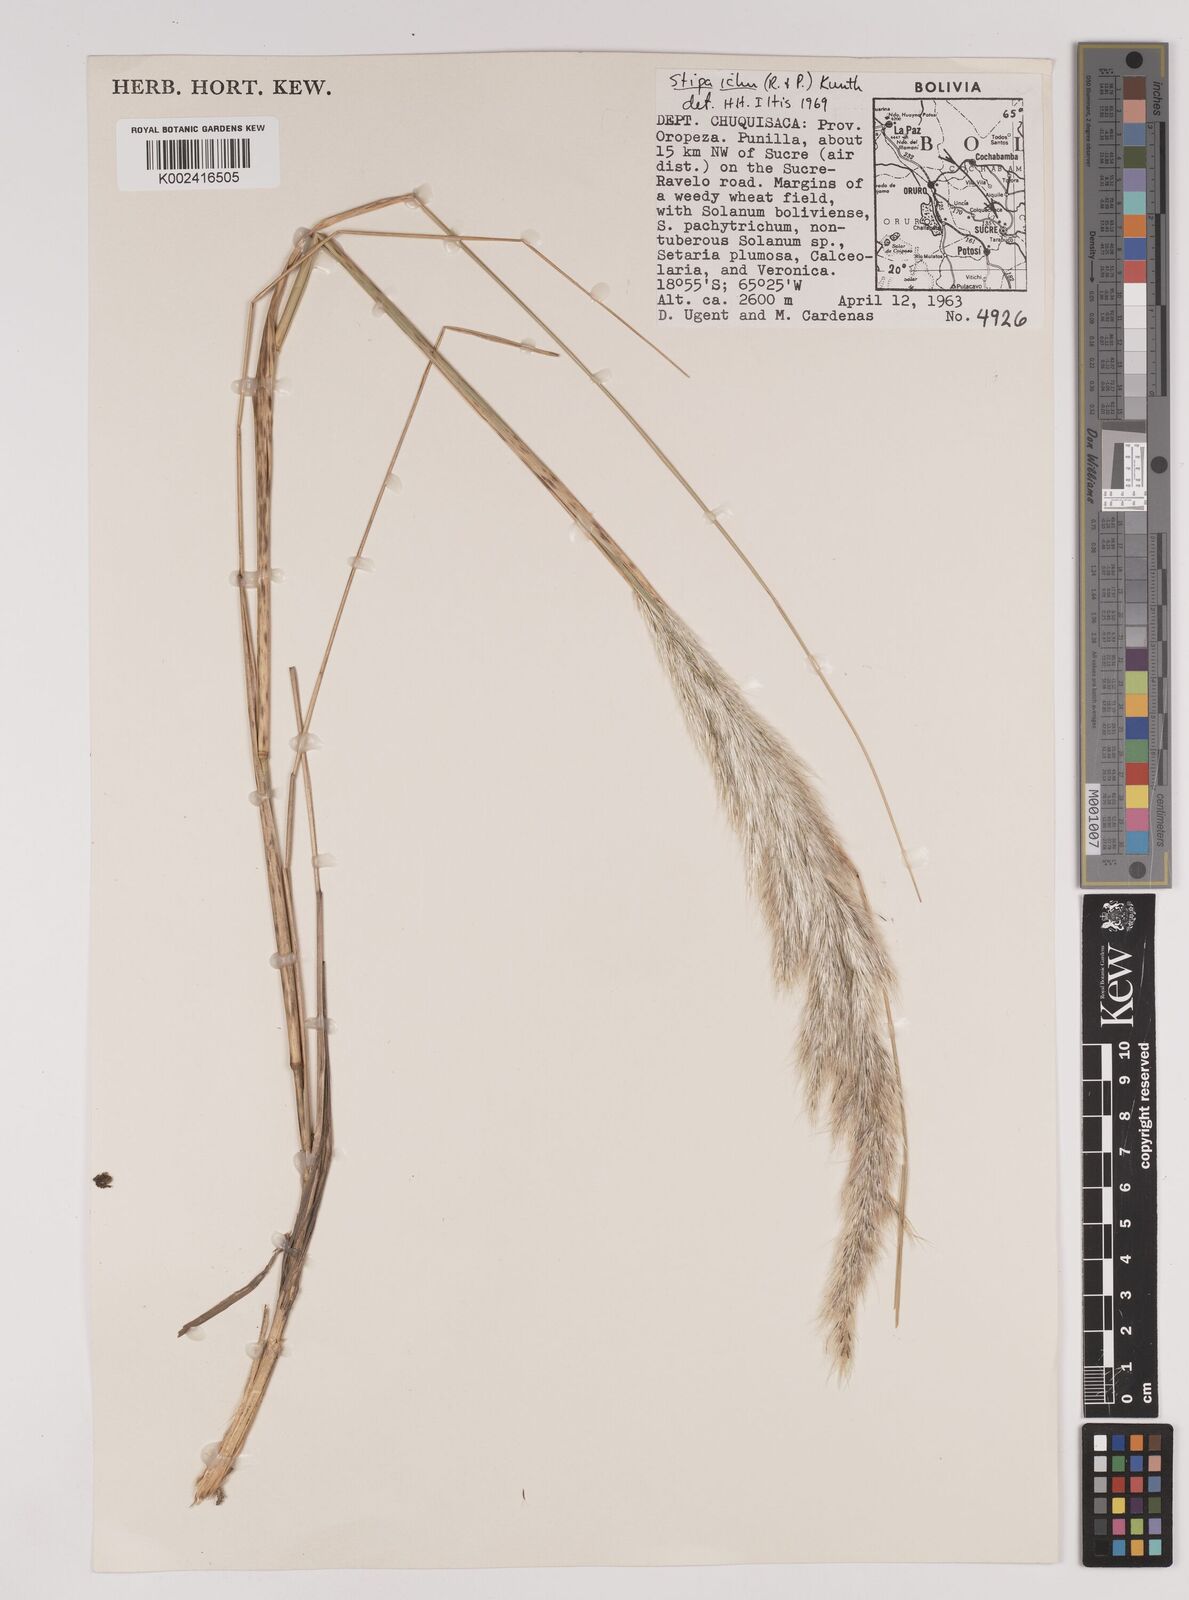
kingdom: Plantae
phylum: Tracheophyta
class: Liliopsida
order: Poales
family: Poaceae
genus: Jarava
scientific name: Jarava ichu
